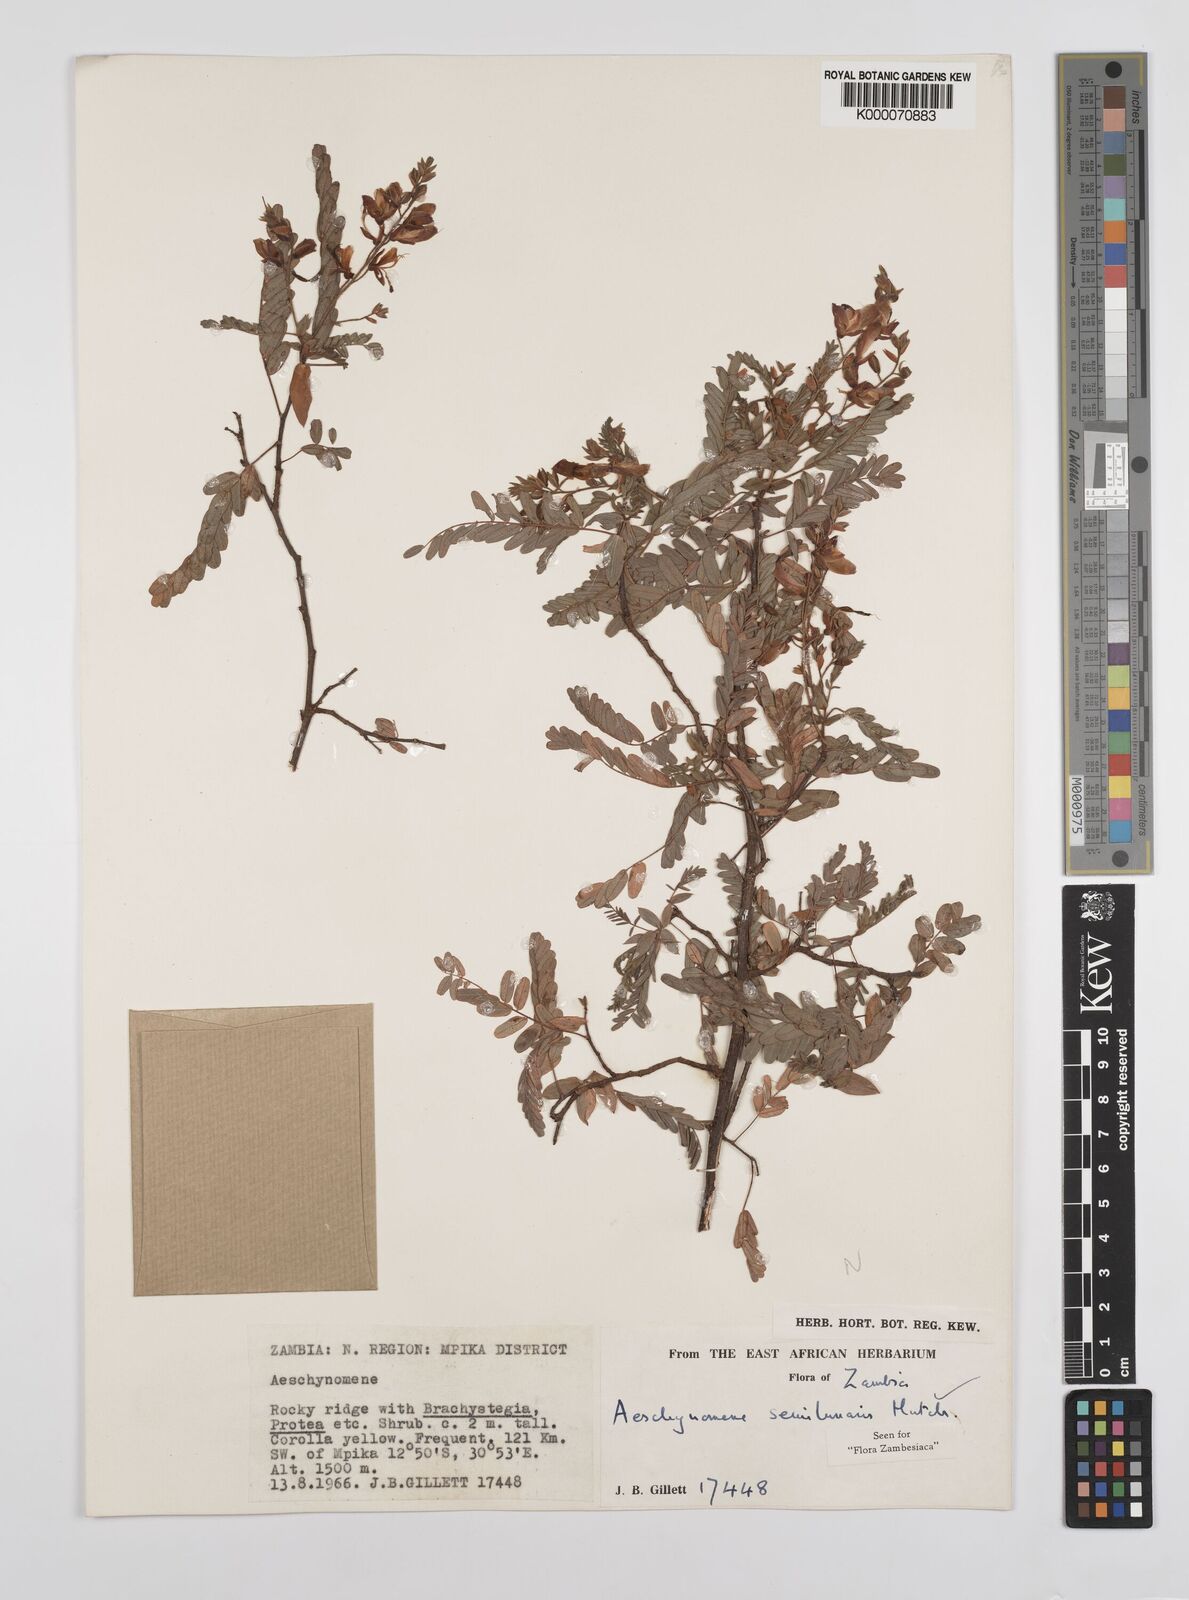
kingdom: Plantae
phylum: Tracheophyta
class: Magnoliopsida
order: Fabales
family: Fabaceae
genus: Aeschynomene
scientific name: Aeschynomene semilunaris
